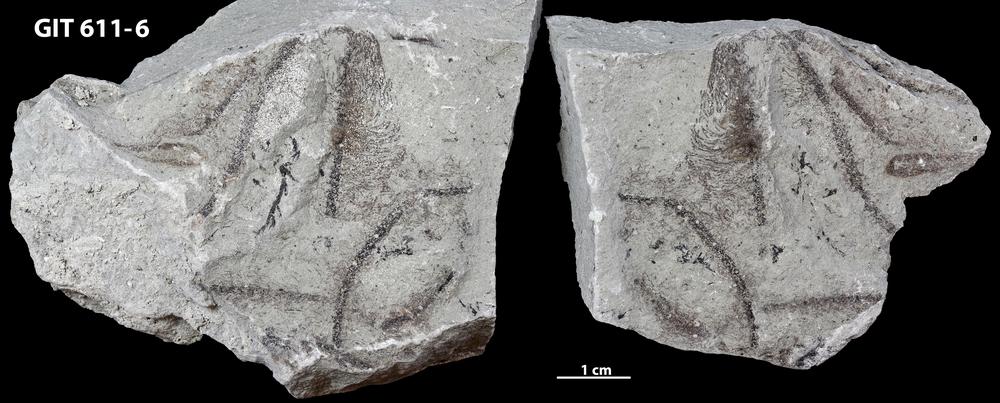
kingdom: Plantae
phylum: Chlorophyta
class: Ulvophyceae
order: Dasycladales
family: Seletonellaceae
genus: Medusaegraptus
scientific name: Medusaegraptus
